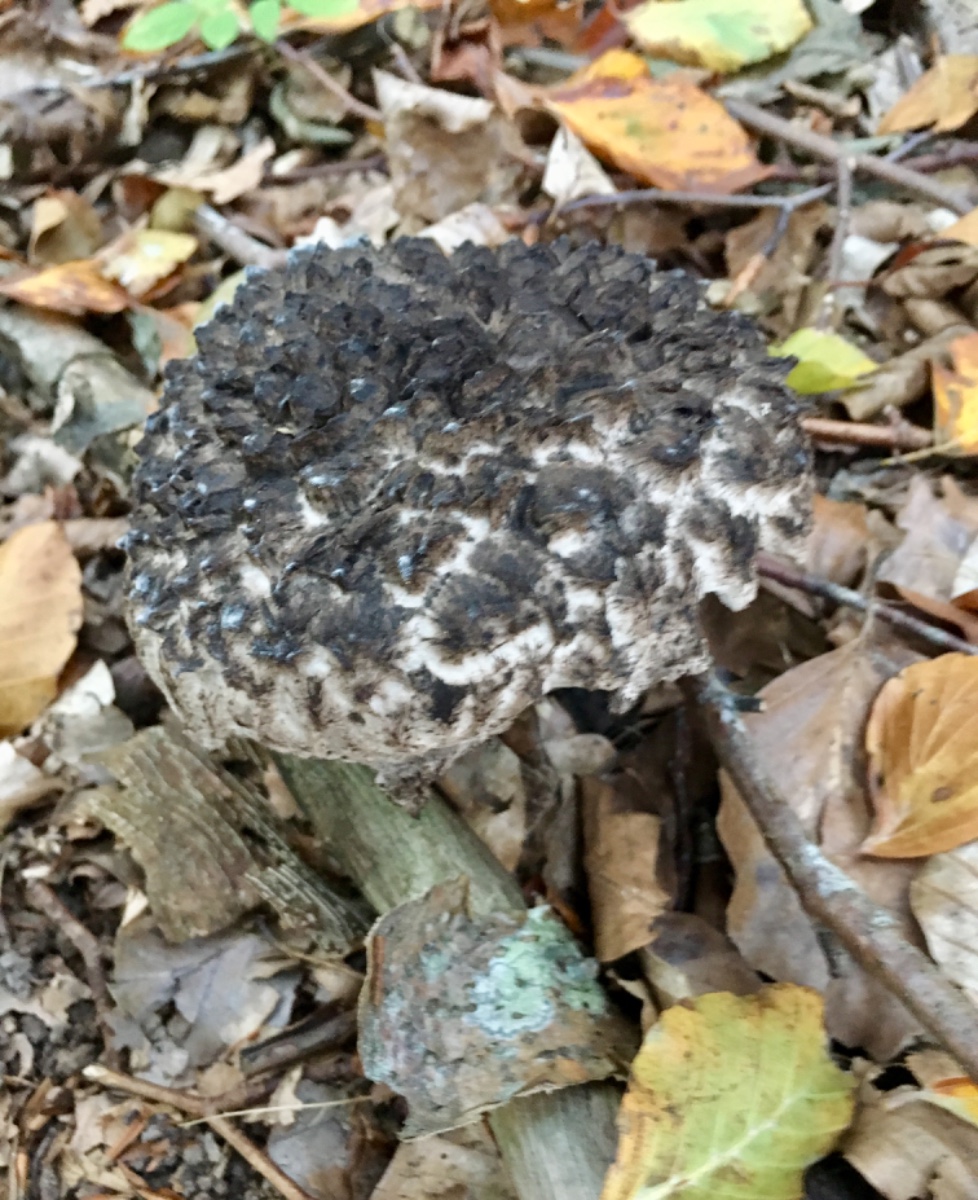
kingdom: Fungi
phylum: Basidiomycota
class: Agaricomycetes
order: Boletales
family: Boletaceae
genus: Strobilomyces
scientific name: Strobilomyces strobilaceus
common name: koglerørhat
